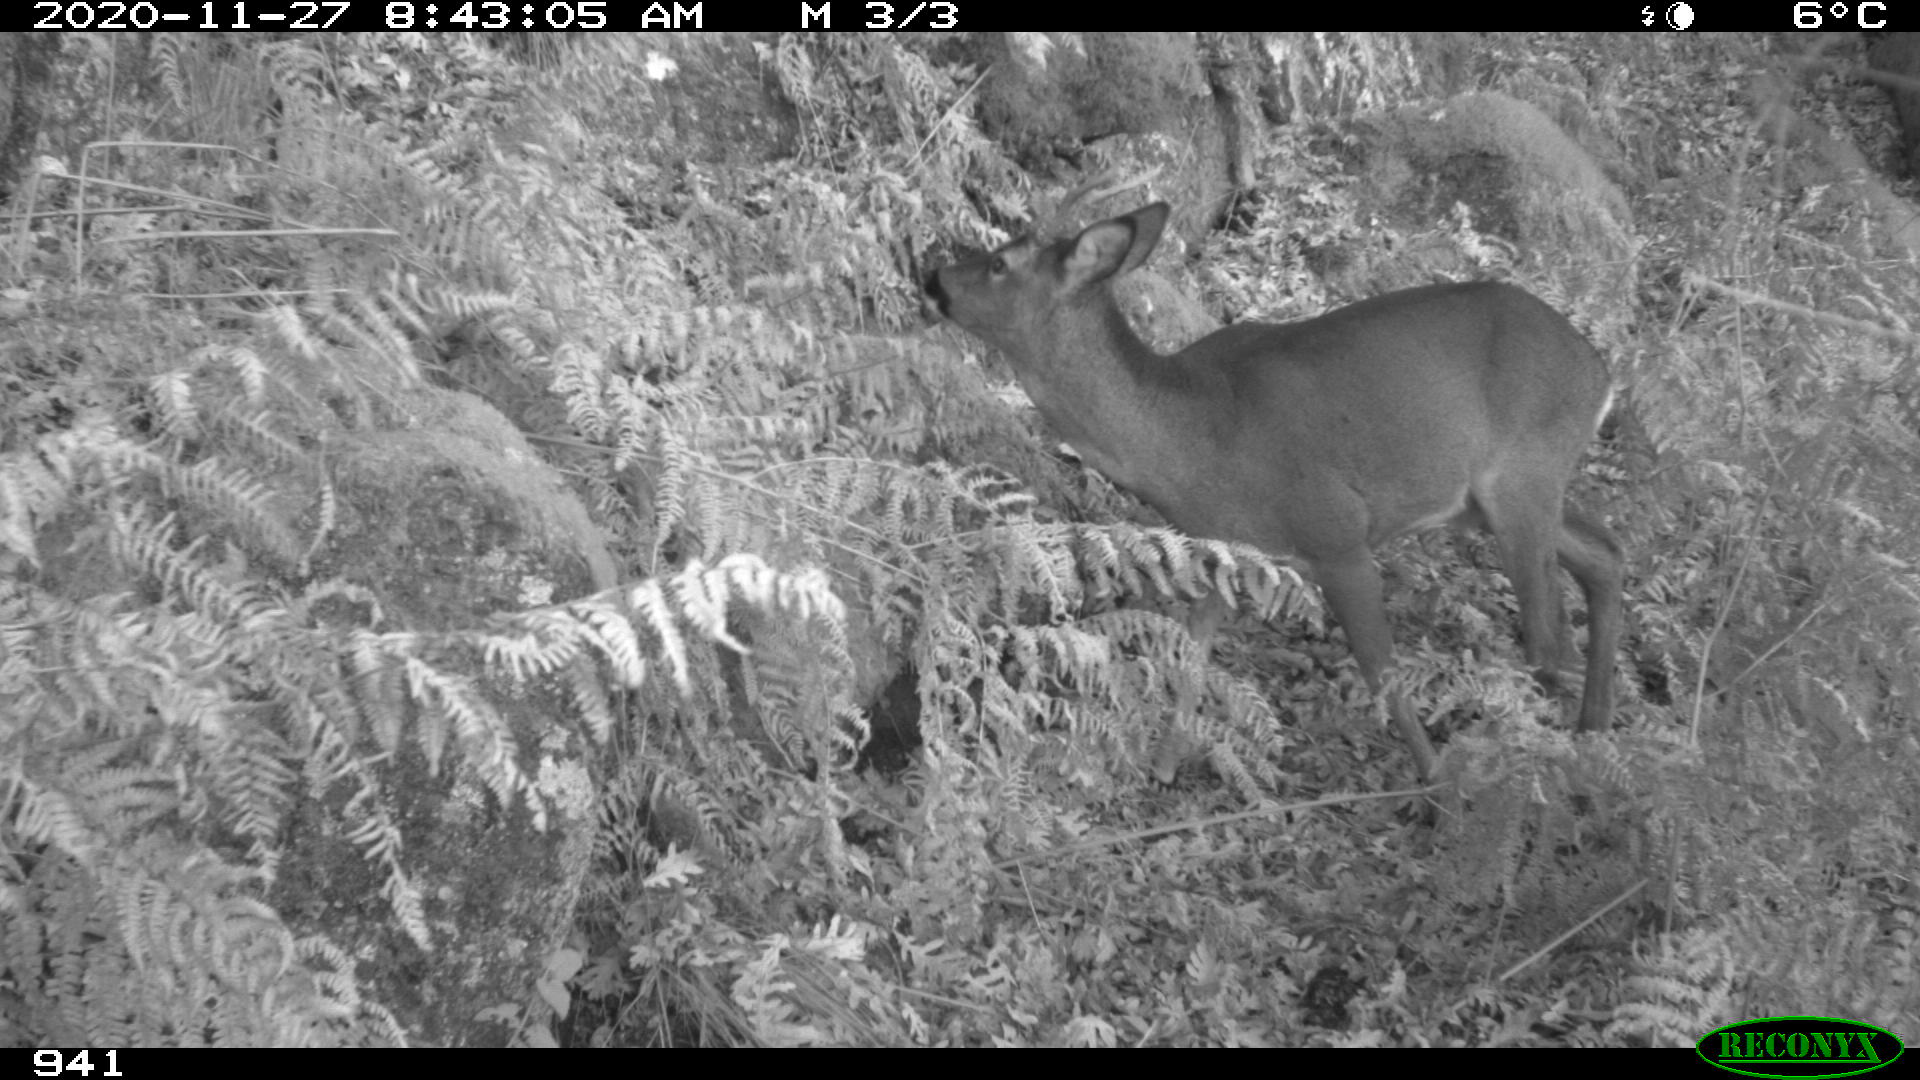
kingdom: Animalia
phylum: Chordata
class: Mammalia
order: Artiodactyla
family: Cervidae
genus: Capreolus
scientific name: Capreolus capreolus
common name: Western roe deer
